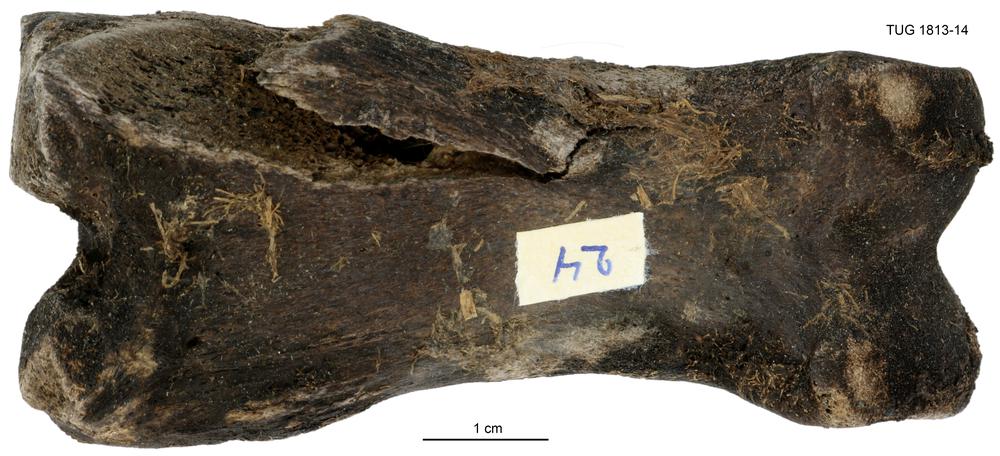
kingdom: Animalia
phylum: Chordata
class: Mammalia
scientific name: Mammalia
